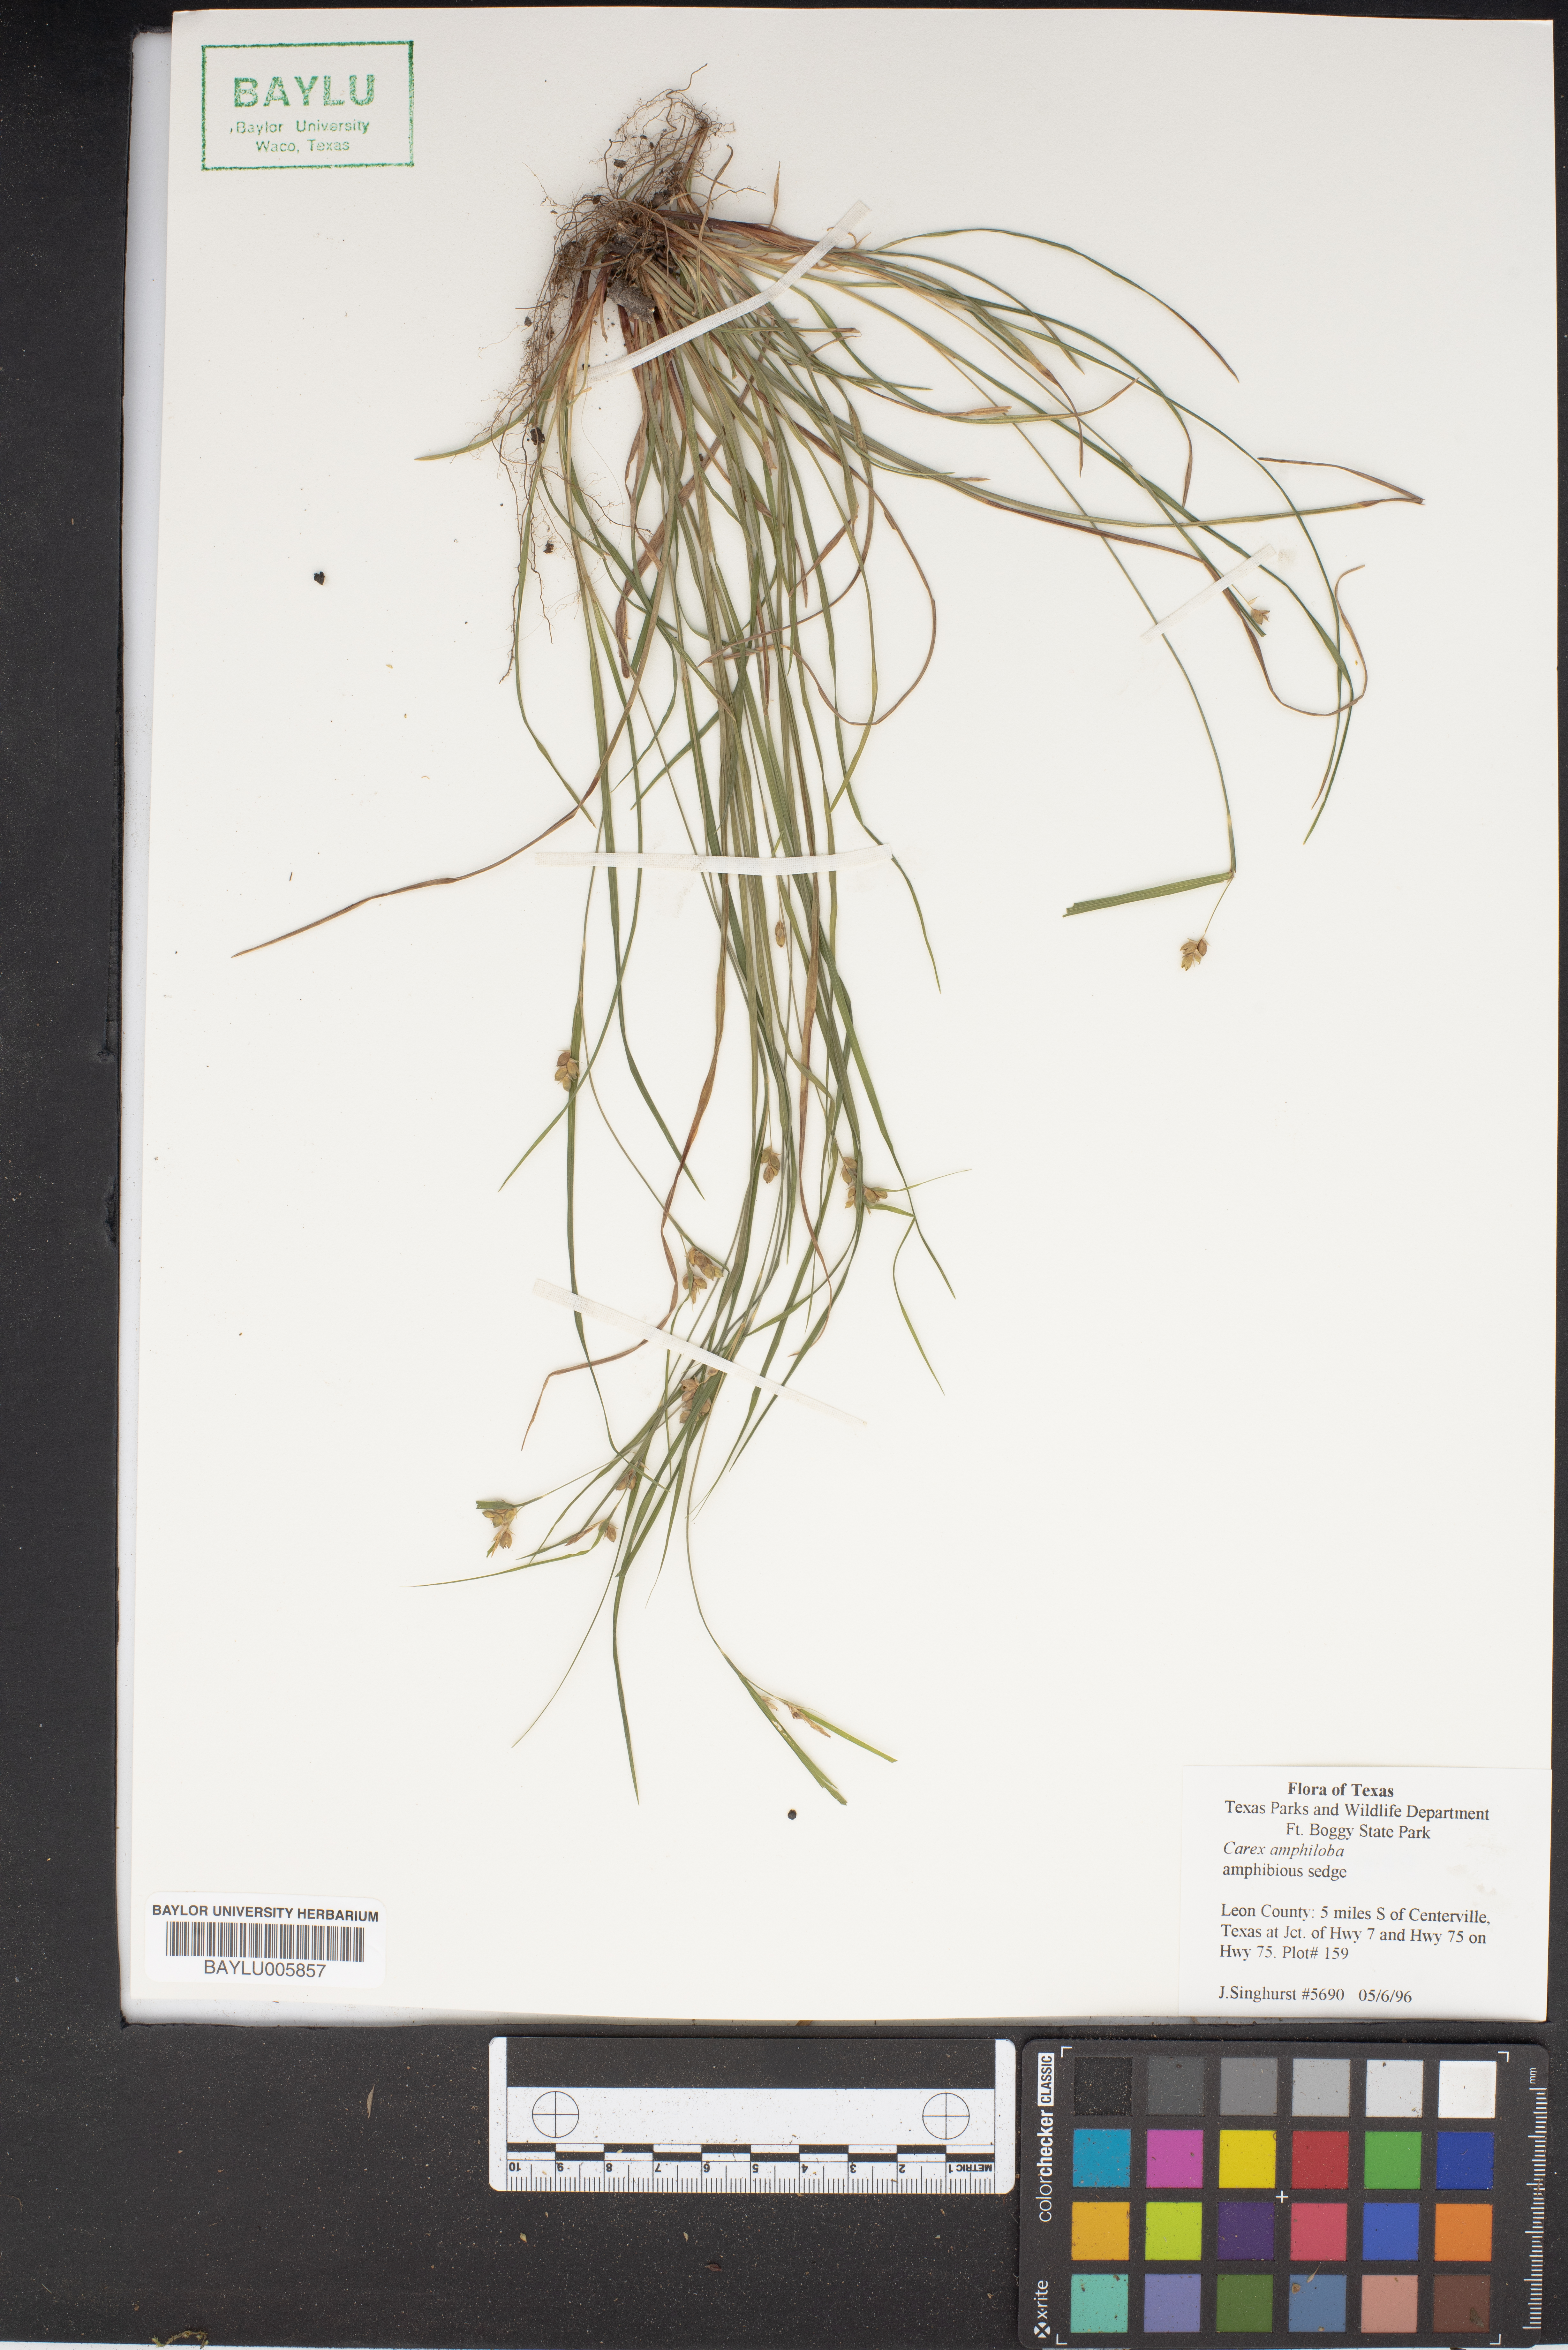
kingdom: Plantae
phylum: Tracheophyta
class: Liliopsida
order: Poales
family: Cyperaceae
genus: Carex
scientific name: Carex amphibola
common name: Amphibious sedge
